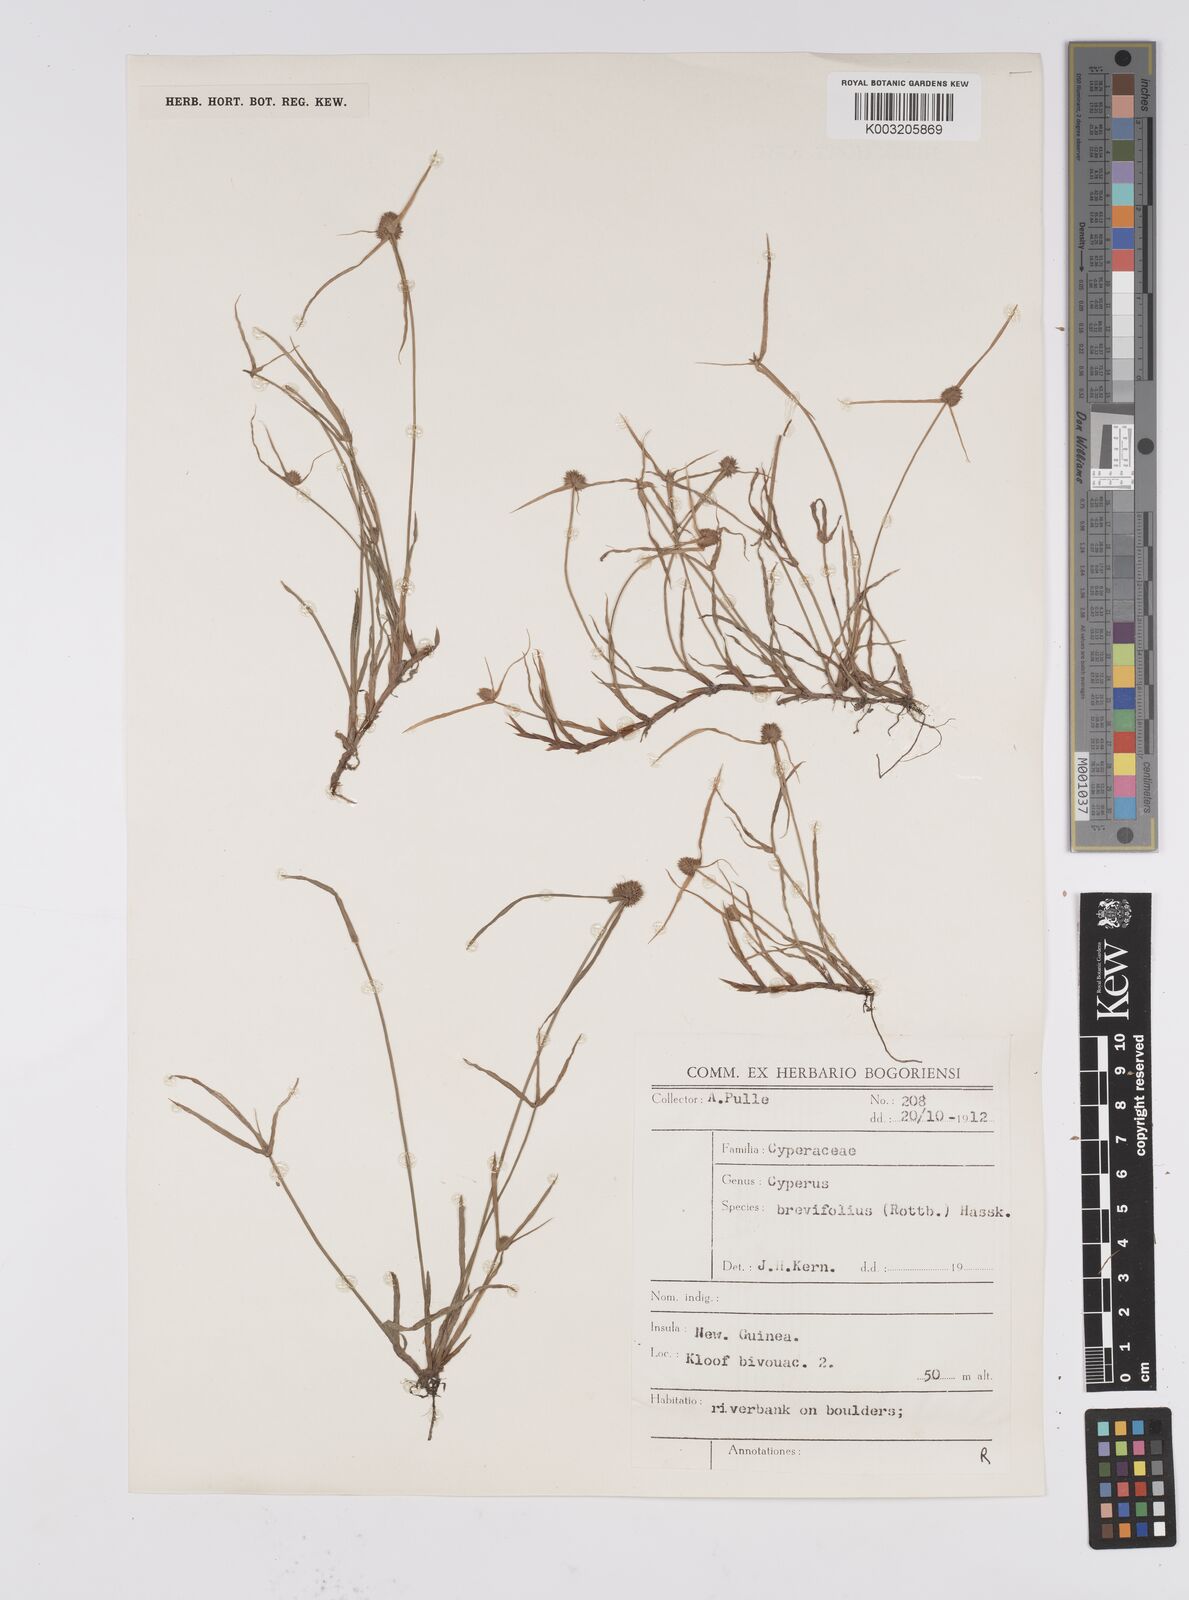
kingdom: Plantae
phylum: Tracheophyta
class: Liliopsida
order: Poales
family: Cyperaceae
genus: Cyperus
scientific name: Cyperus brevifolius
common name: Globe kyllinga
